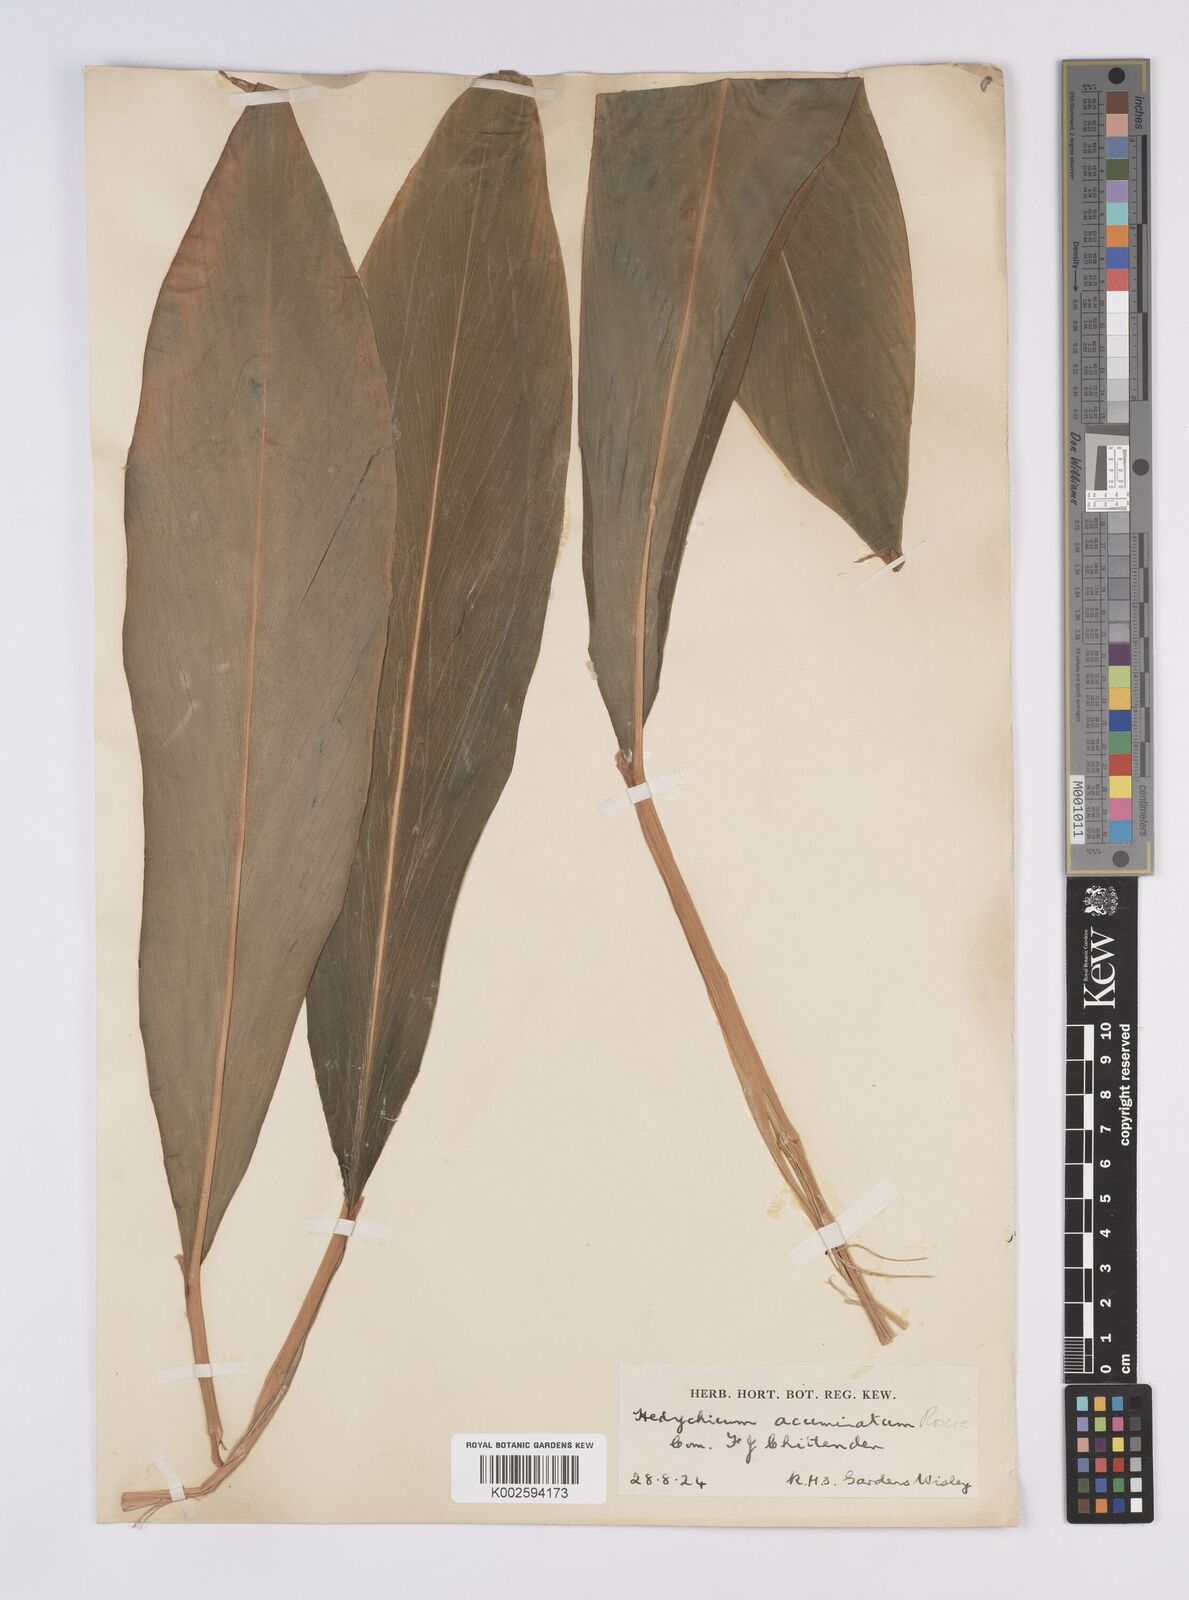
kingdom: Plantae
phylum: Tracheophyta
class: Liliopsida
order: Zingiberales
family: Zingiberaceae
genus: Hedychium
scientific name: Hedychium spicatum
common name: Spiked ginger-lily
